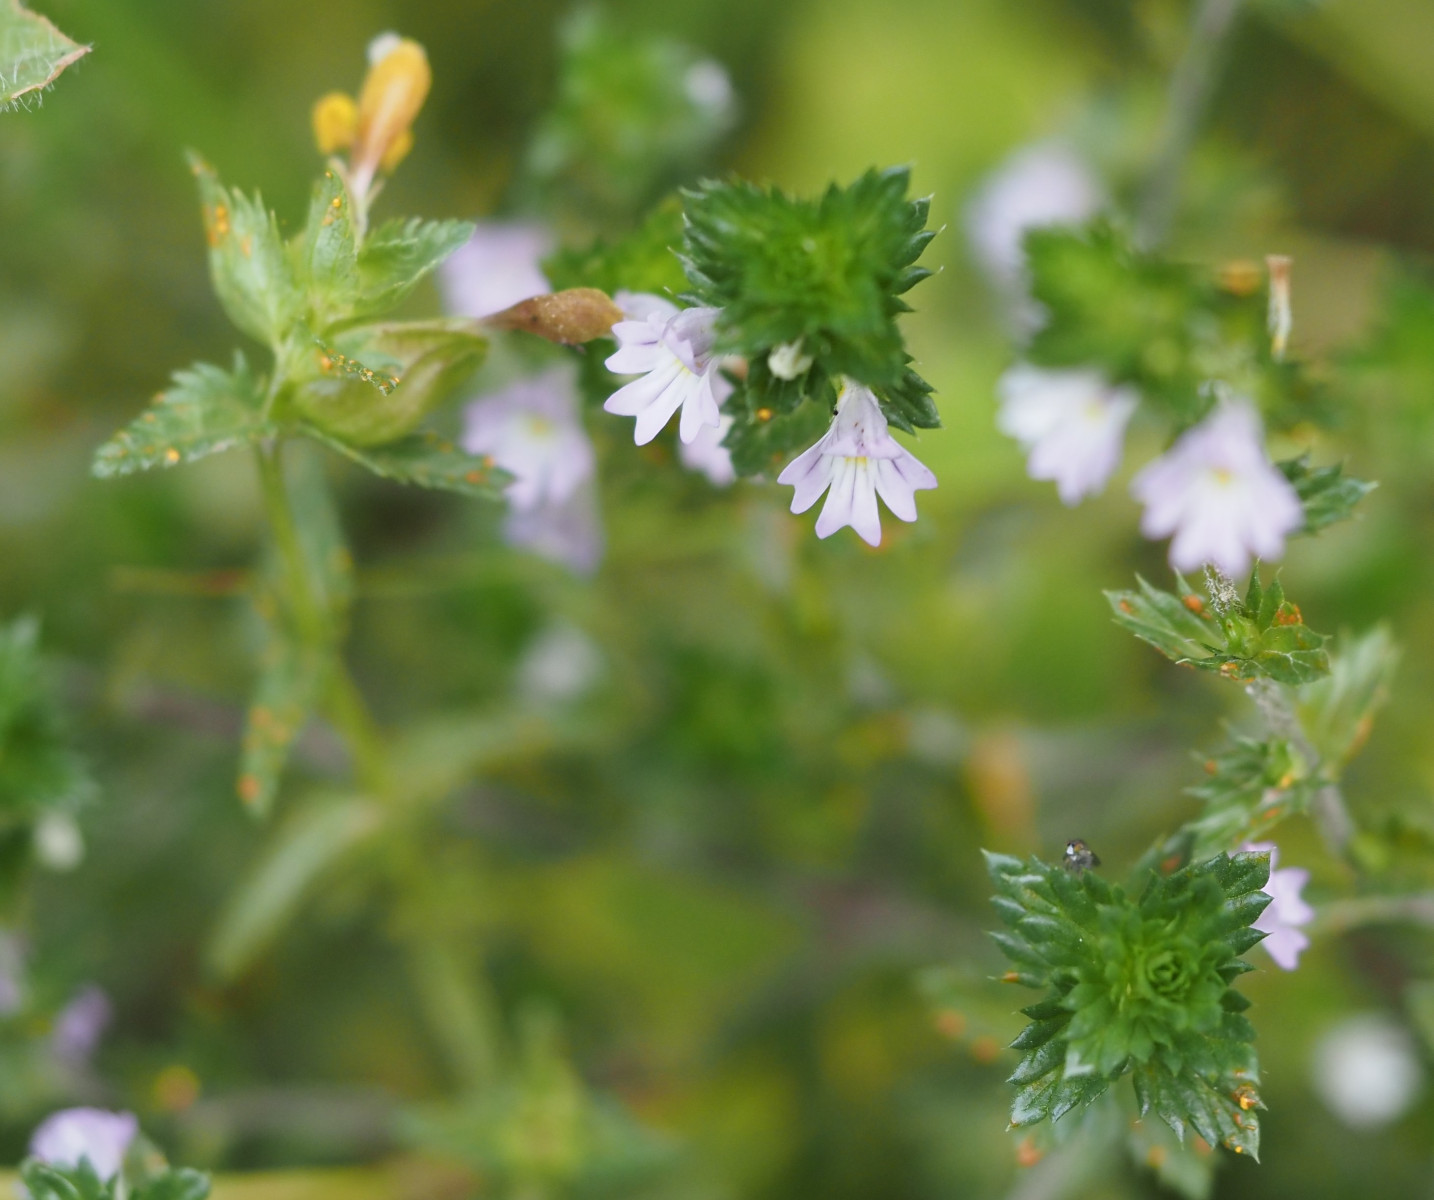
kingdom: Fungi
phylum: Basidiomycota
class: Pucciniomycetes
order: Pucciniales
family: Coleosporiaceae
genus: Coleosporium
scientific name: Coleosporium tussilaginis
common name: almindelig fyrrenålerust
